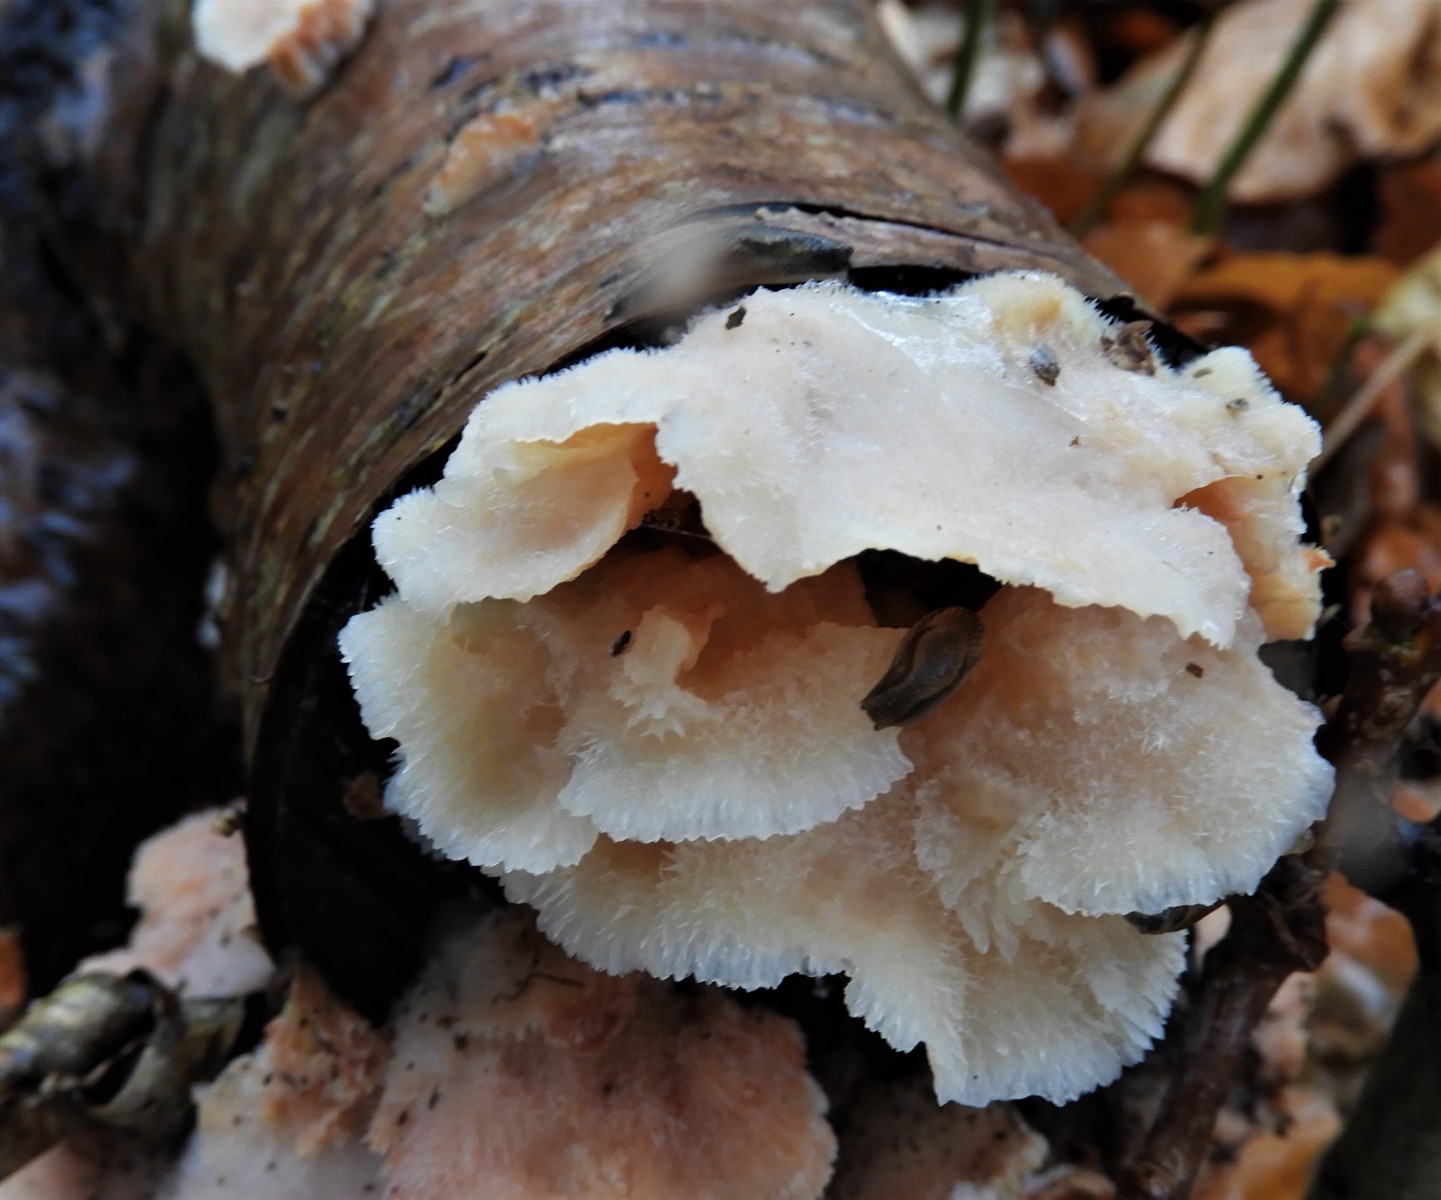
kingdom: Fungi
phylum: Basidiomycota
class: Agaricomycetes
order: Polyporales
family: Meruliaceae
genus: Phlebia
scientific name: Phlebia tremellosa
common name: bævrende åresvamp
